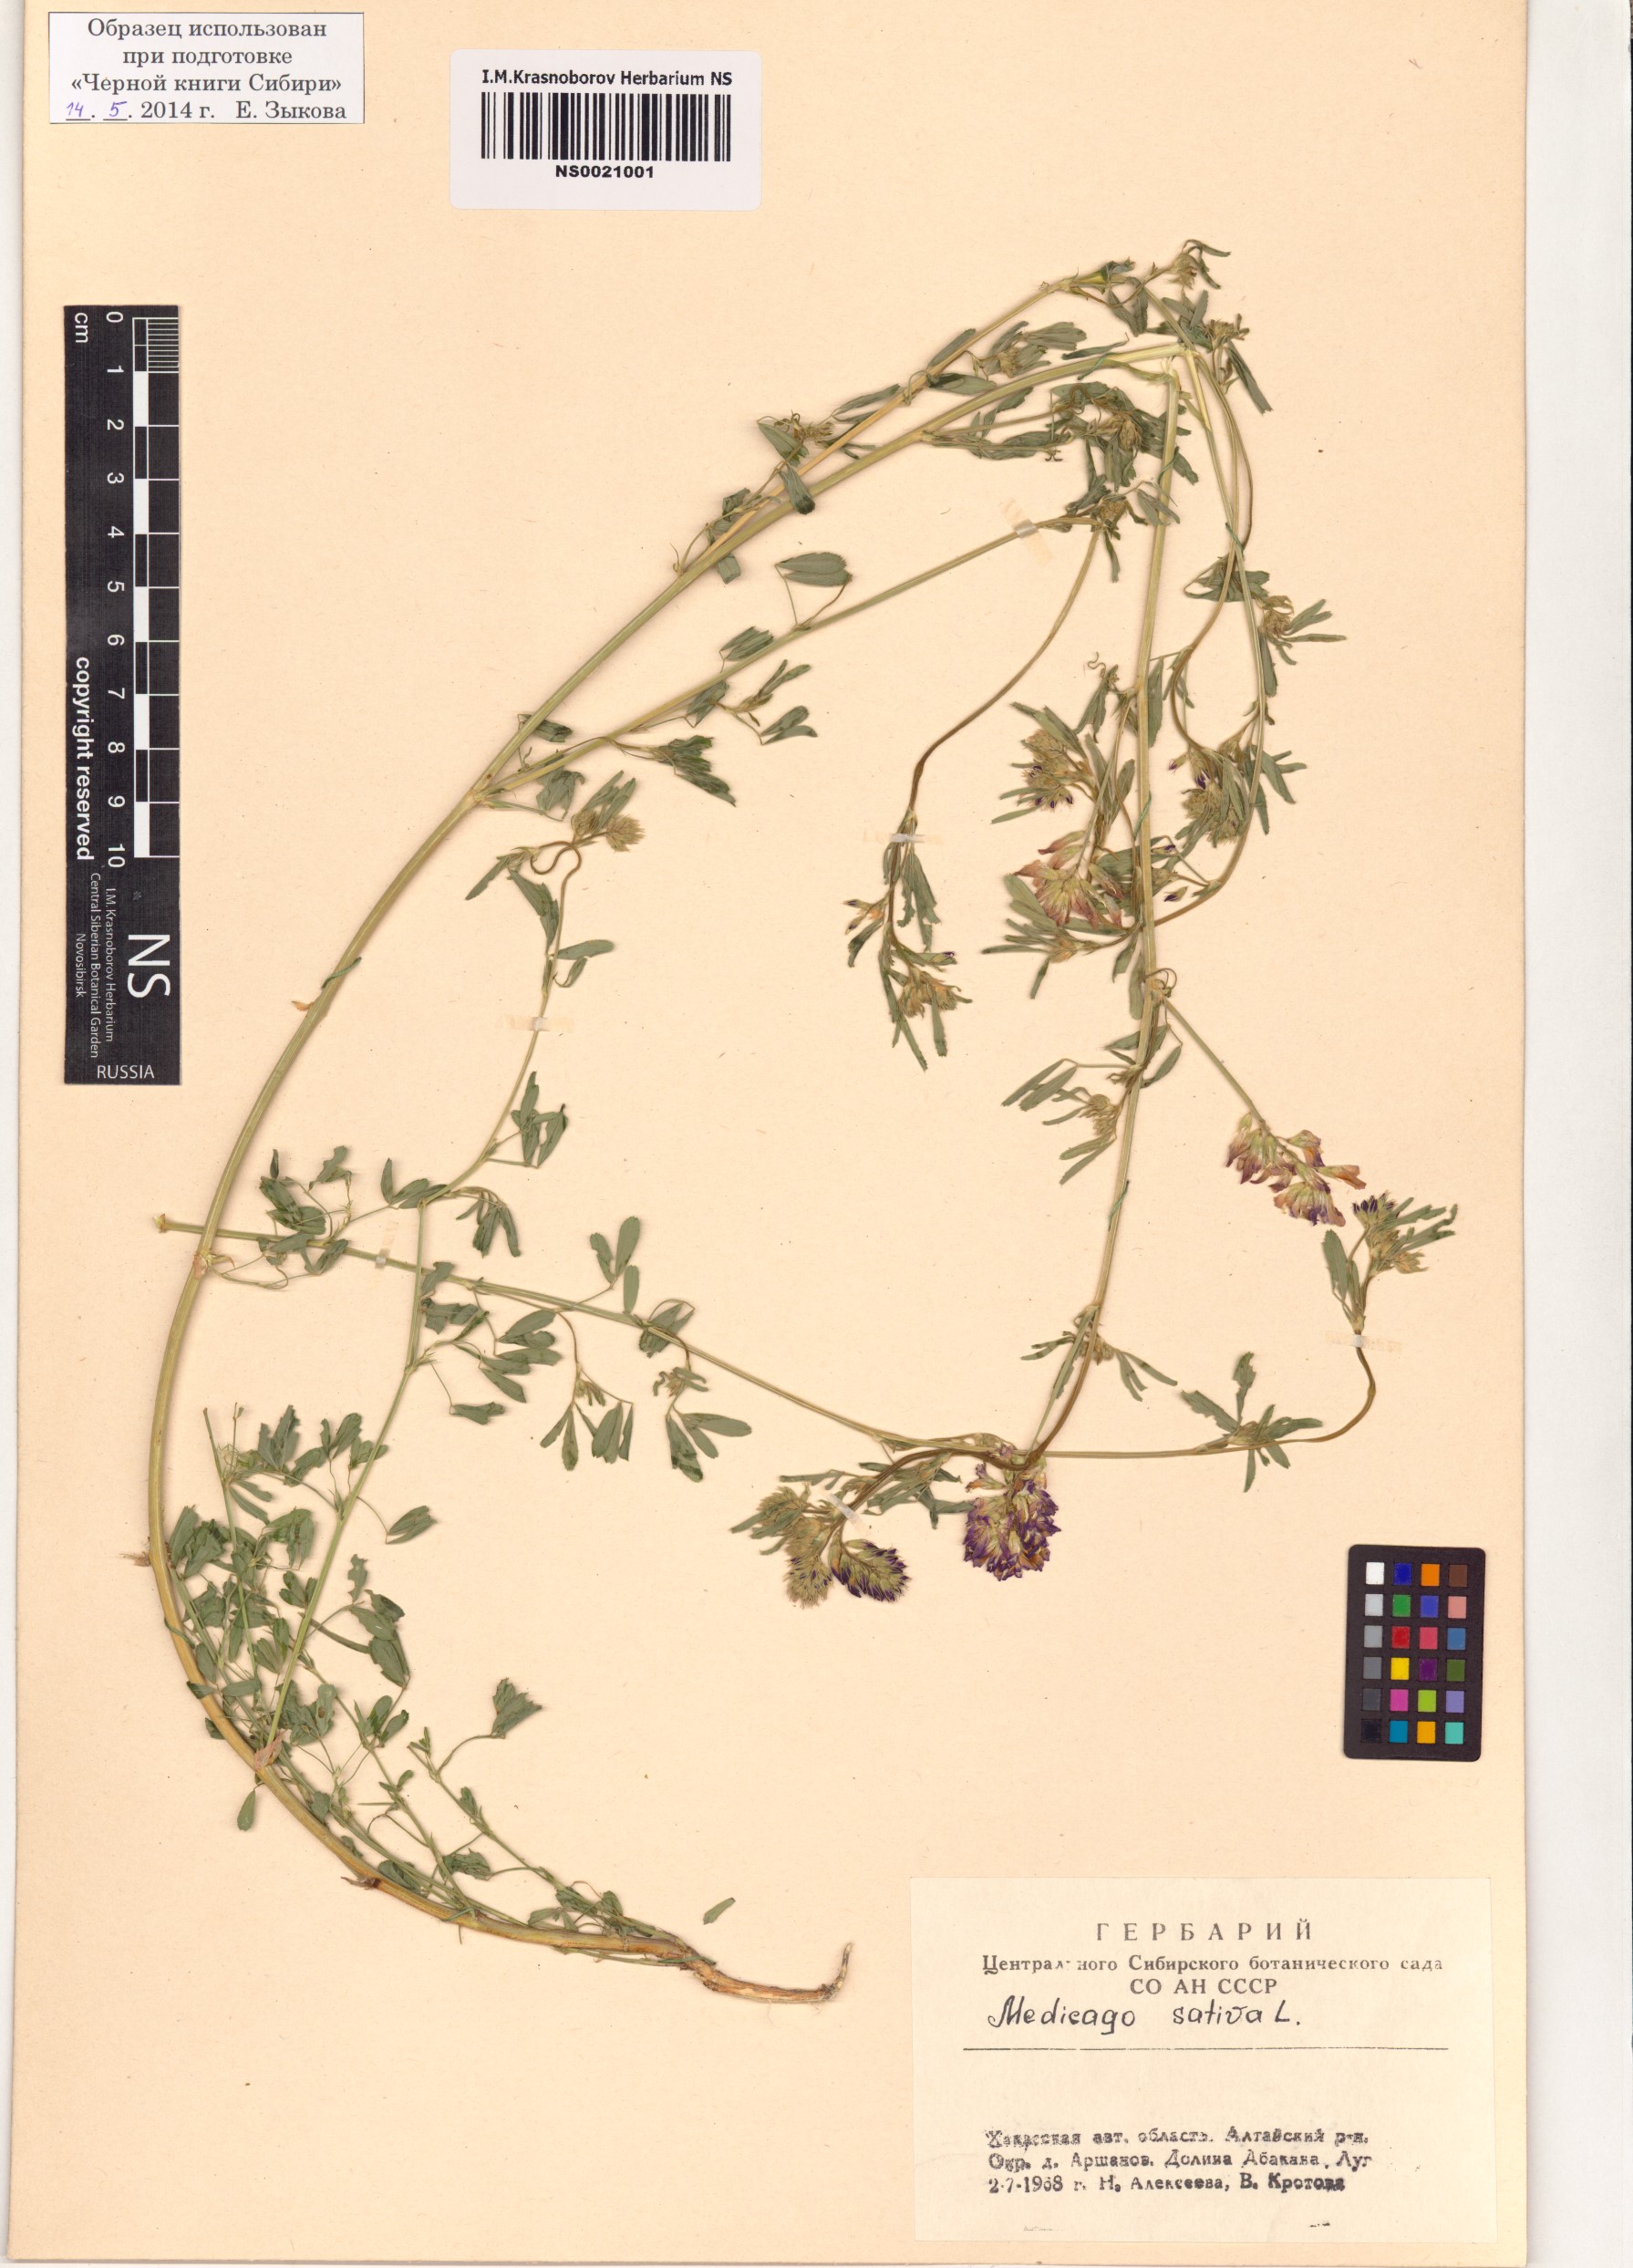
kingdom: Plantae
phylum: Tracheophyta
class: Magnoliopsida
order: Fabales
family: Fabaceae
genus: Medicago
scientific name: Medicago sativa
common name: Alfalfa
